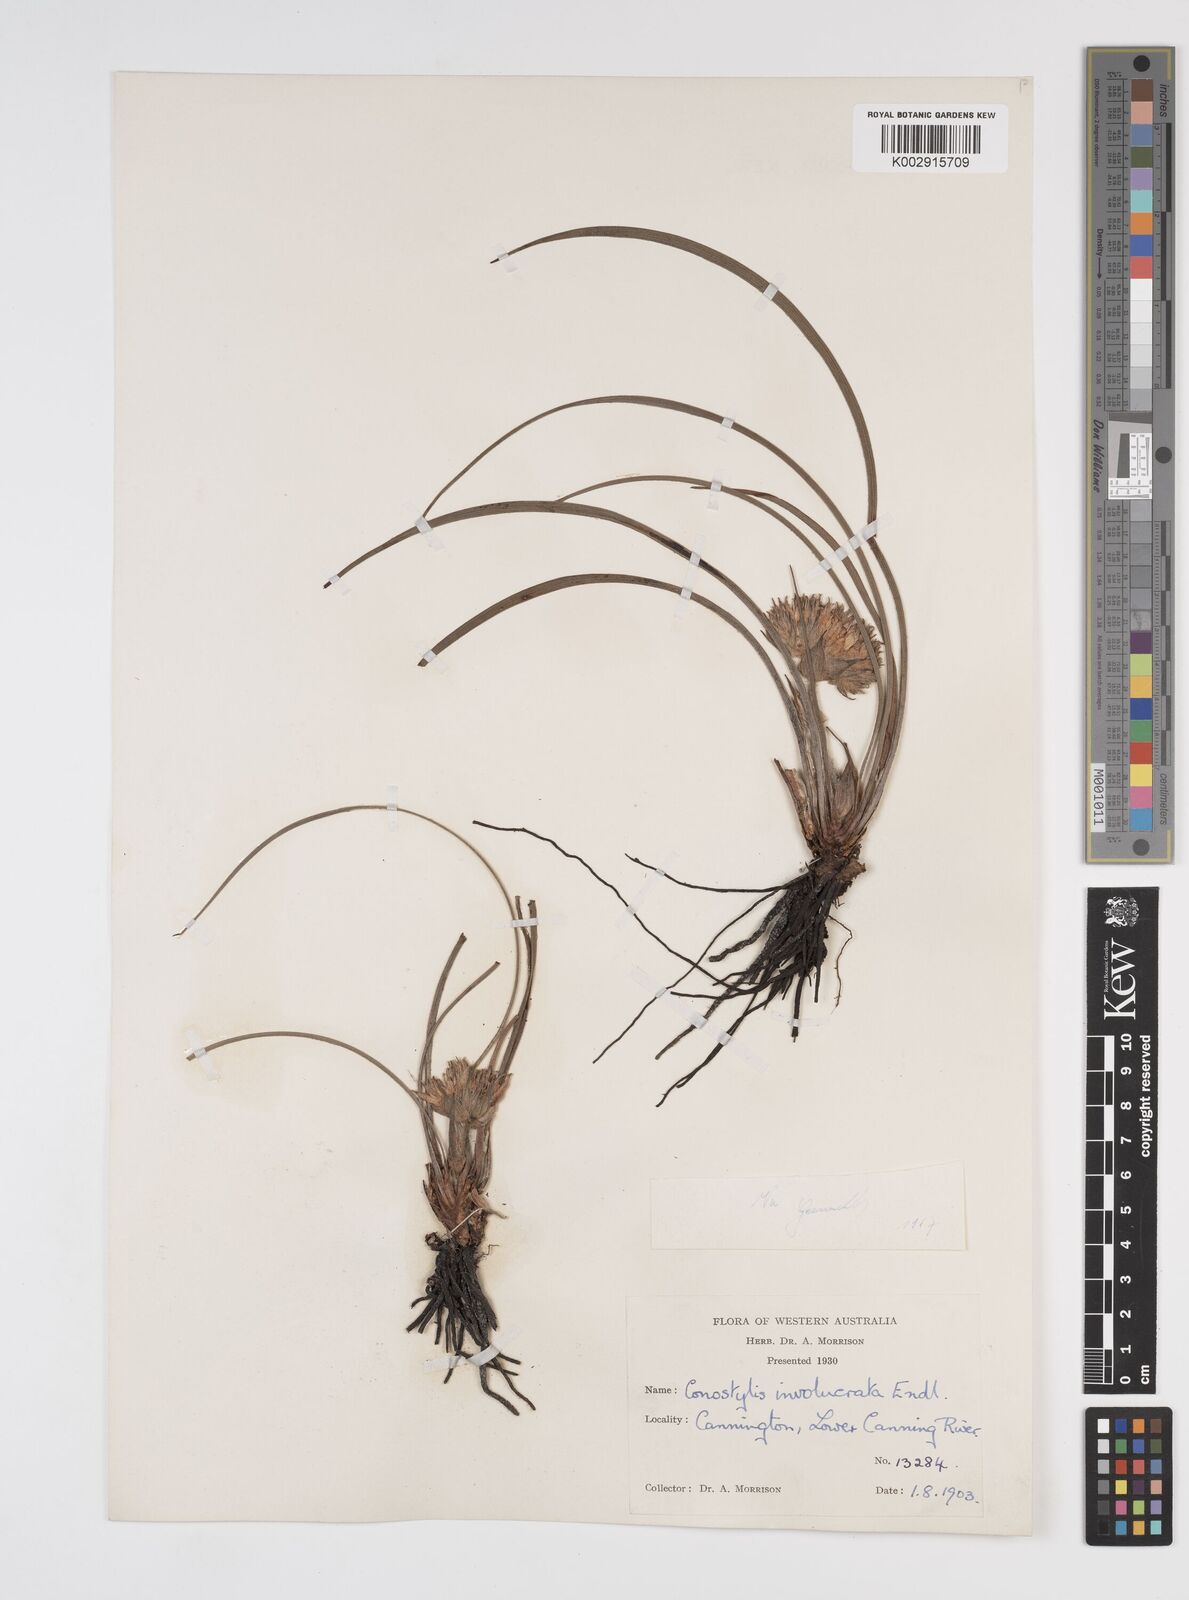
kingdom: Plantae
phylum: Tracheophyta
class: Liliopsida
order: Commelinales
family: Haemodoraceae
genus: Conostylis
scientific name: Conostylis juncea
